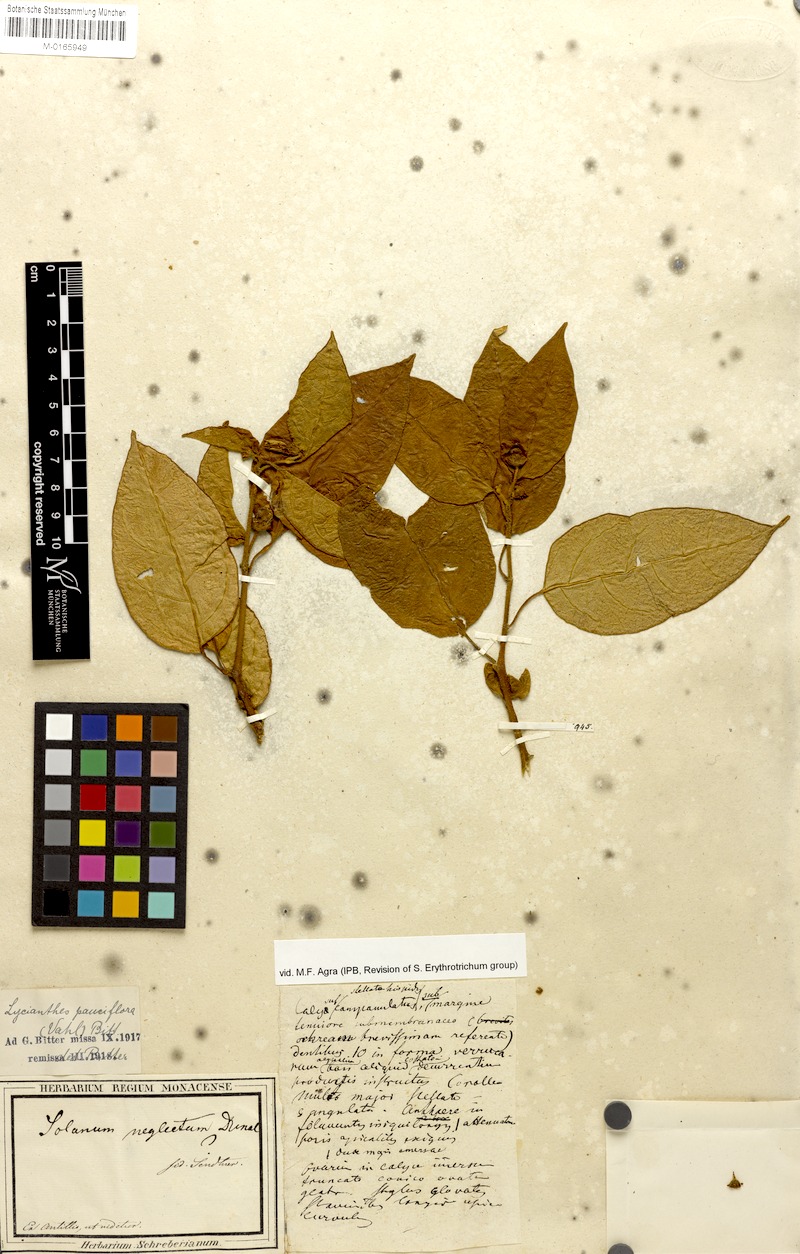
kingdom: Plantae
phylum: Tracheophyta
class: Magnoliopsida
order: Solanales
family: Solanaceae
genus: Lycianthes
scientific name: Lycianthes pauciflora
